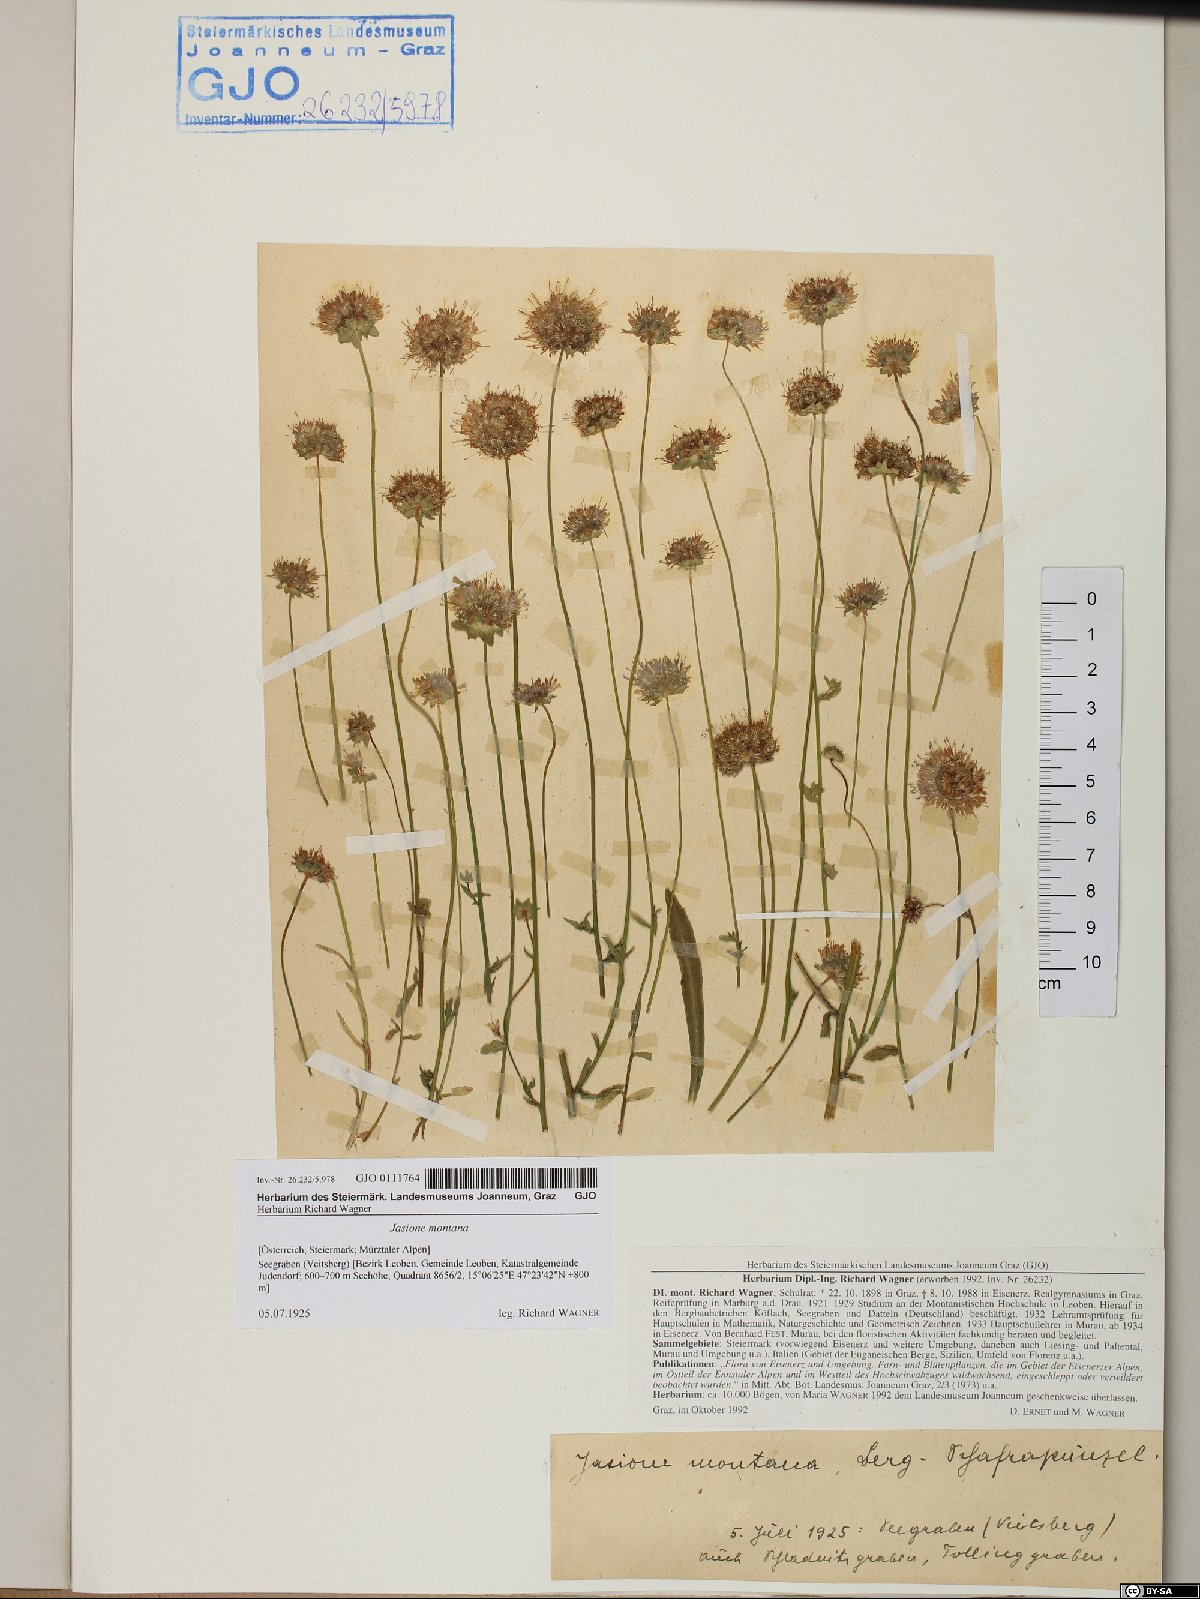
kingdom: Plantae
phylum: Tracheophyta
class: Magnoliopsida
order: Asterales
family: Campanulaceae
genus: Jasione
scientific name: Jasione montana
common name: Sheep's-bit
